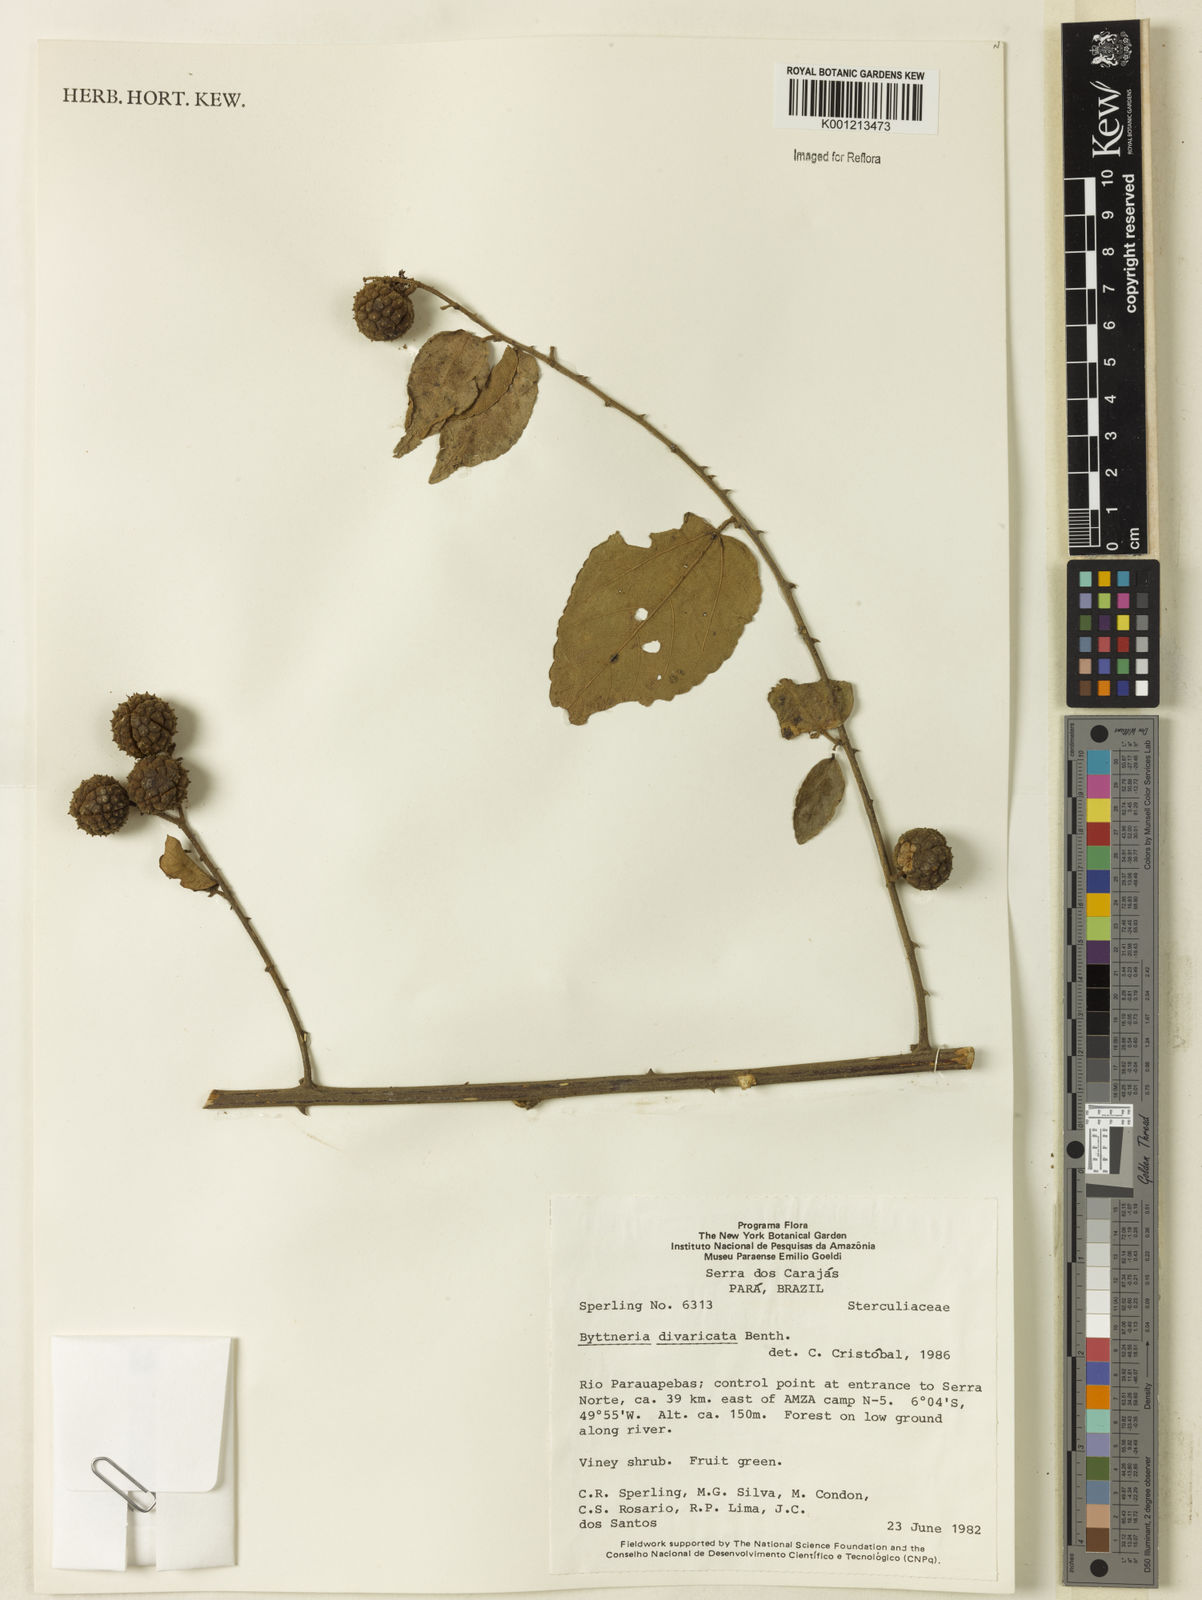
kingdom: Plantae
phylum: Tracheophyta
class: Magnoliopsida
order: Malvales
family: Malvaceae
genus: Byttneria
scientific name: Byttneria divaricata
